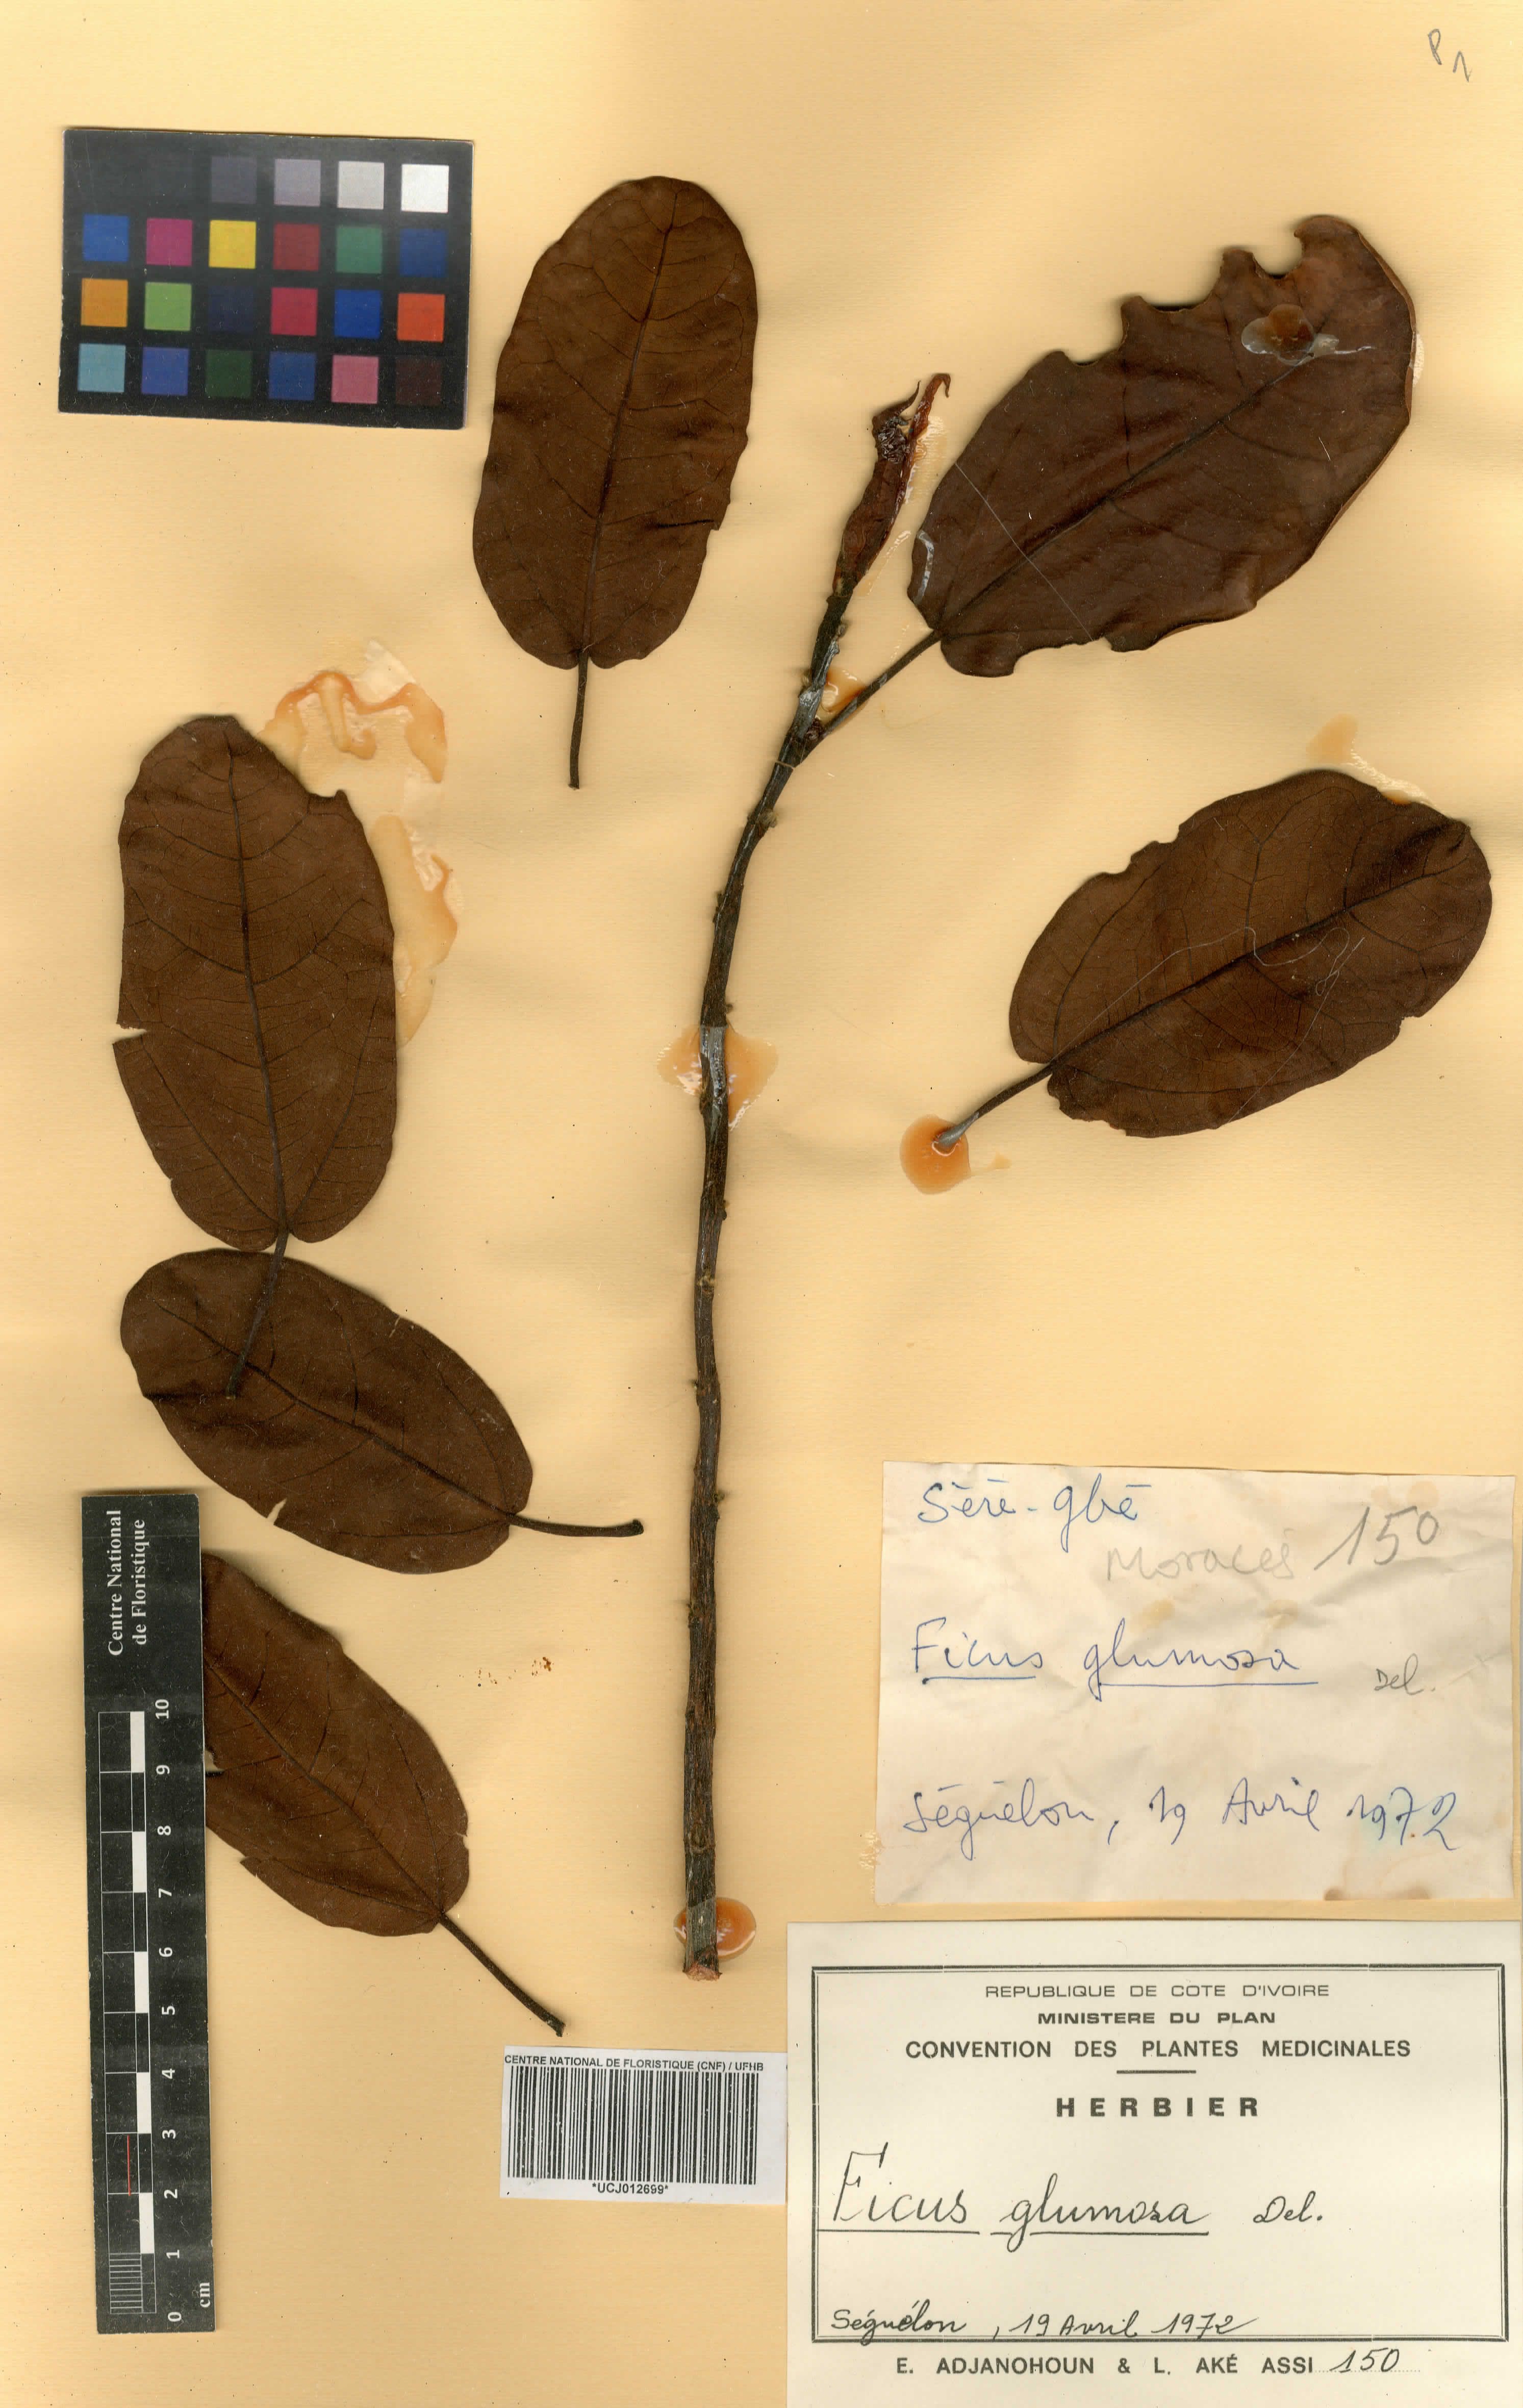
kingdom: Plantae
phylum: Tracheophyta
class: Magnoliopsida
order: Rosales
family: Moraceae
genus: Ficus
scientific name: Ficus glumosa
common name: Hairy rock fig
